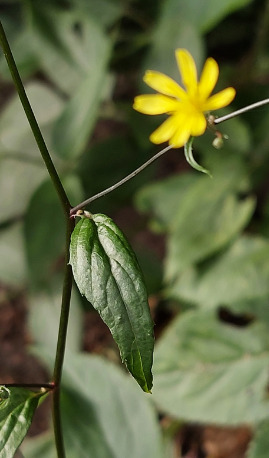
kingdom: Plantae
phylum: Tracheophyta
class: Magnoliopsida
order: Asterales
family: Asteraceae
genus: Lapsana
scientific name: Lapsana communis
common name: Haremad
